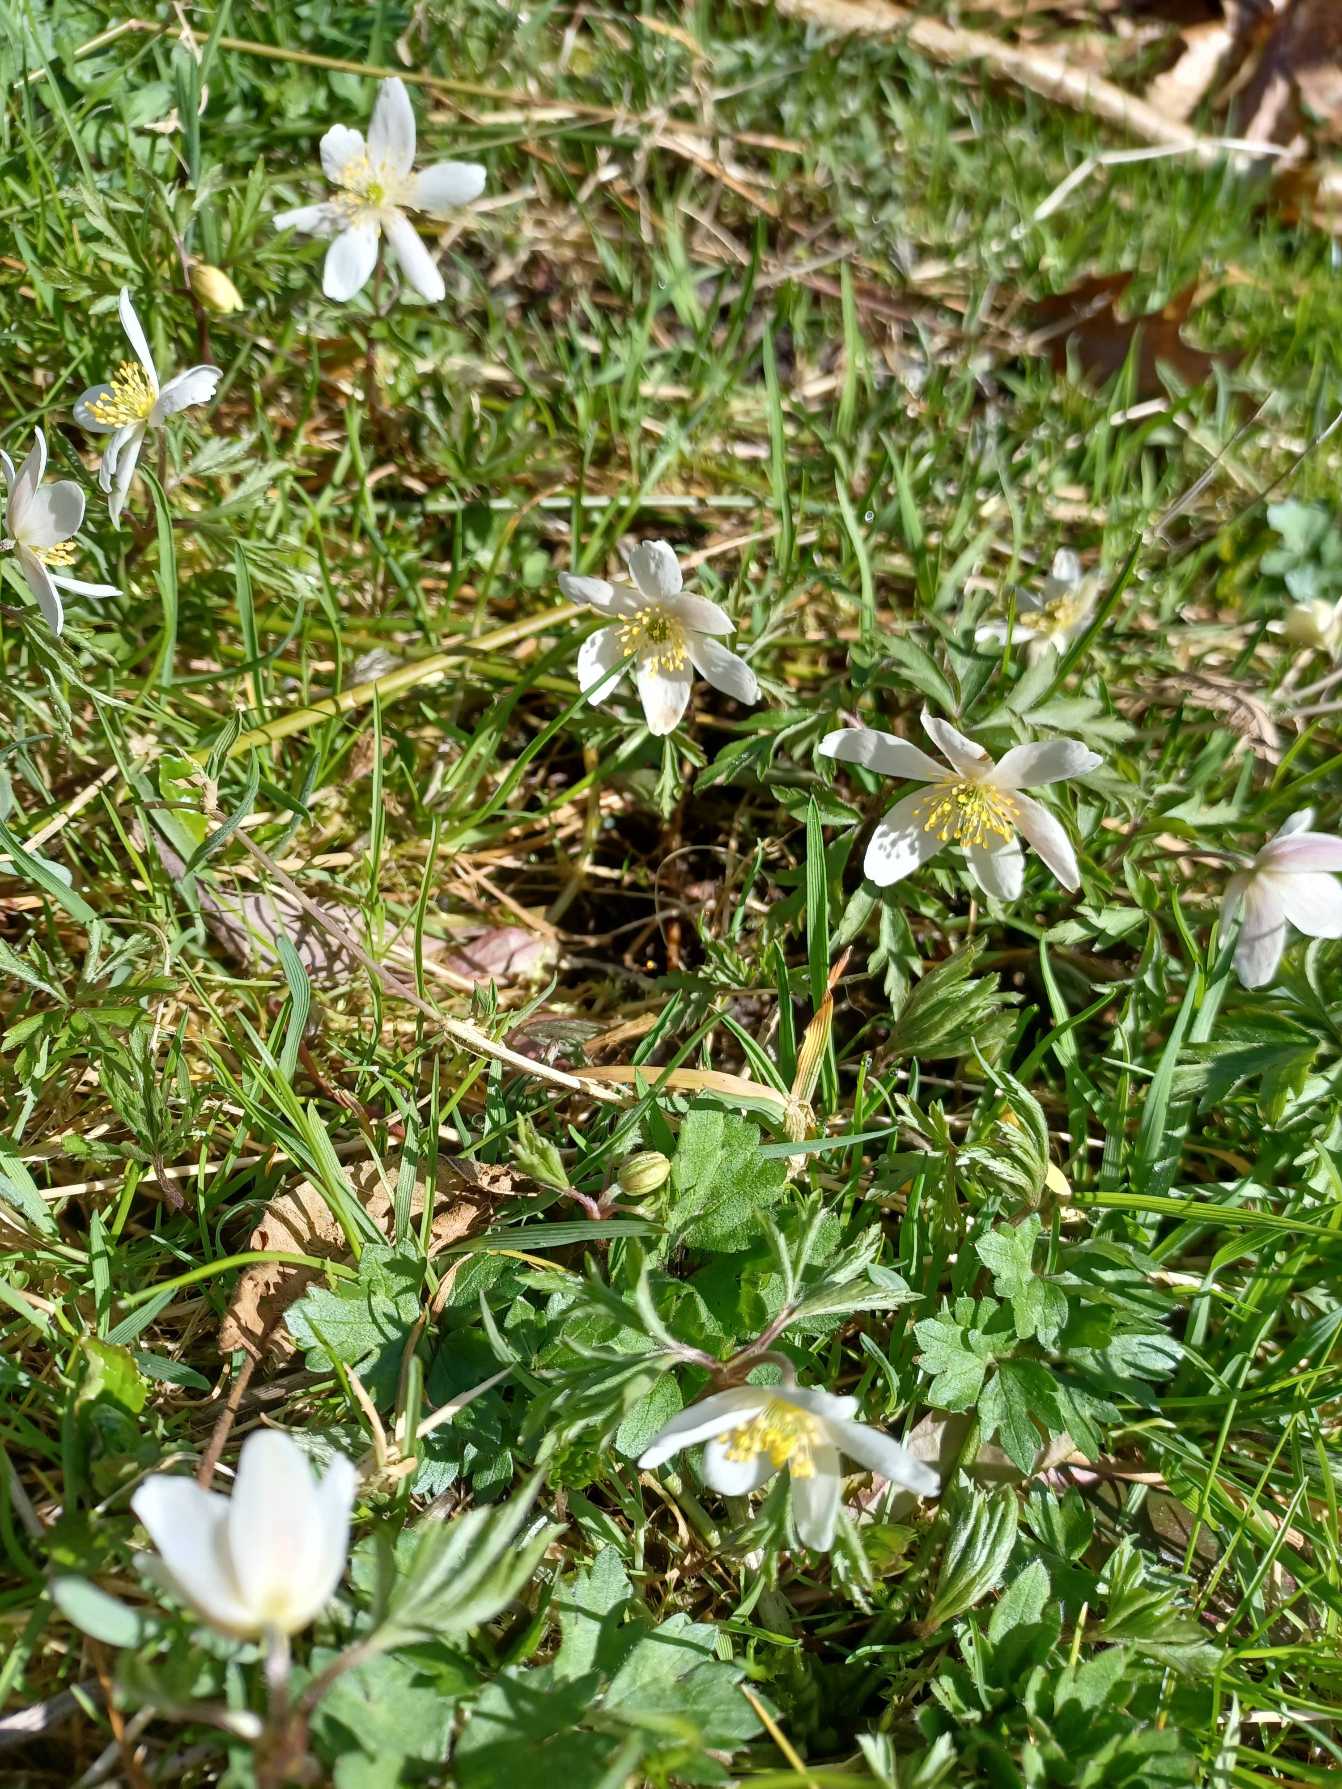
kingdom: Plantae
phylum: Tracheophyta
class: Magnoliopsida
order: Ranunculales
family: Ranunculaceae
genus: Anemone
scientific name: Anemone nemorosa
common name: Hvid anemone
